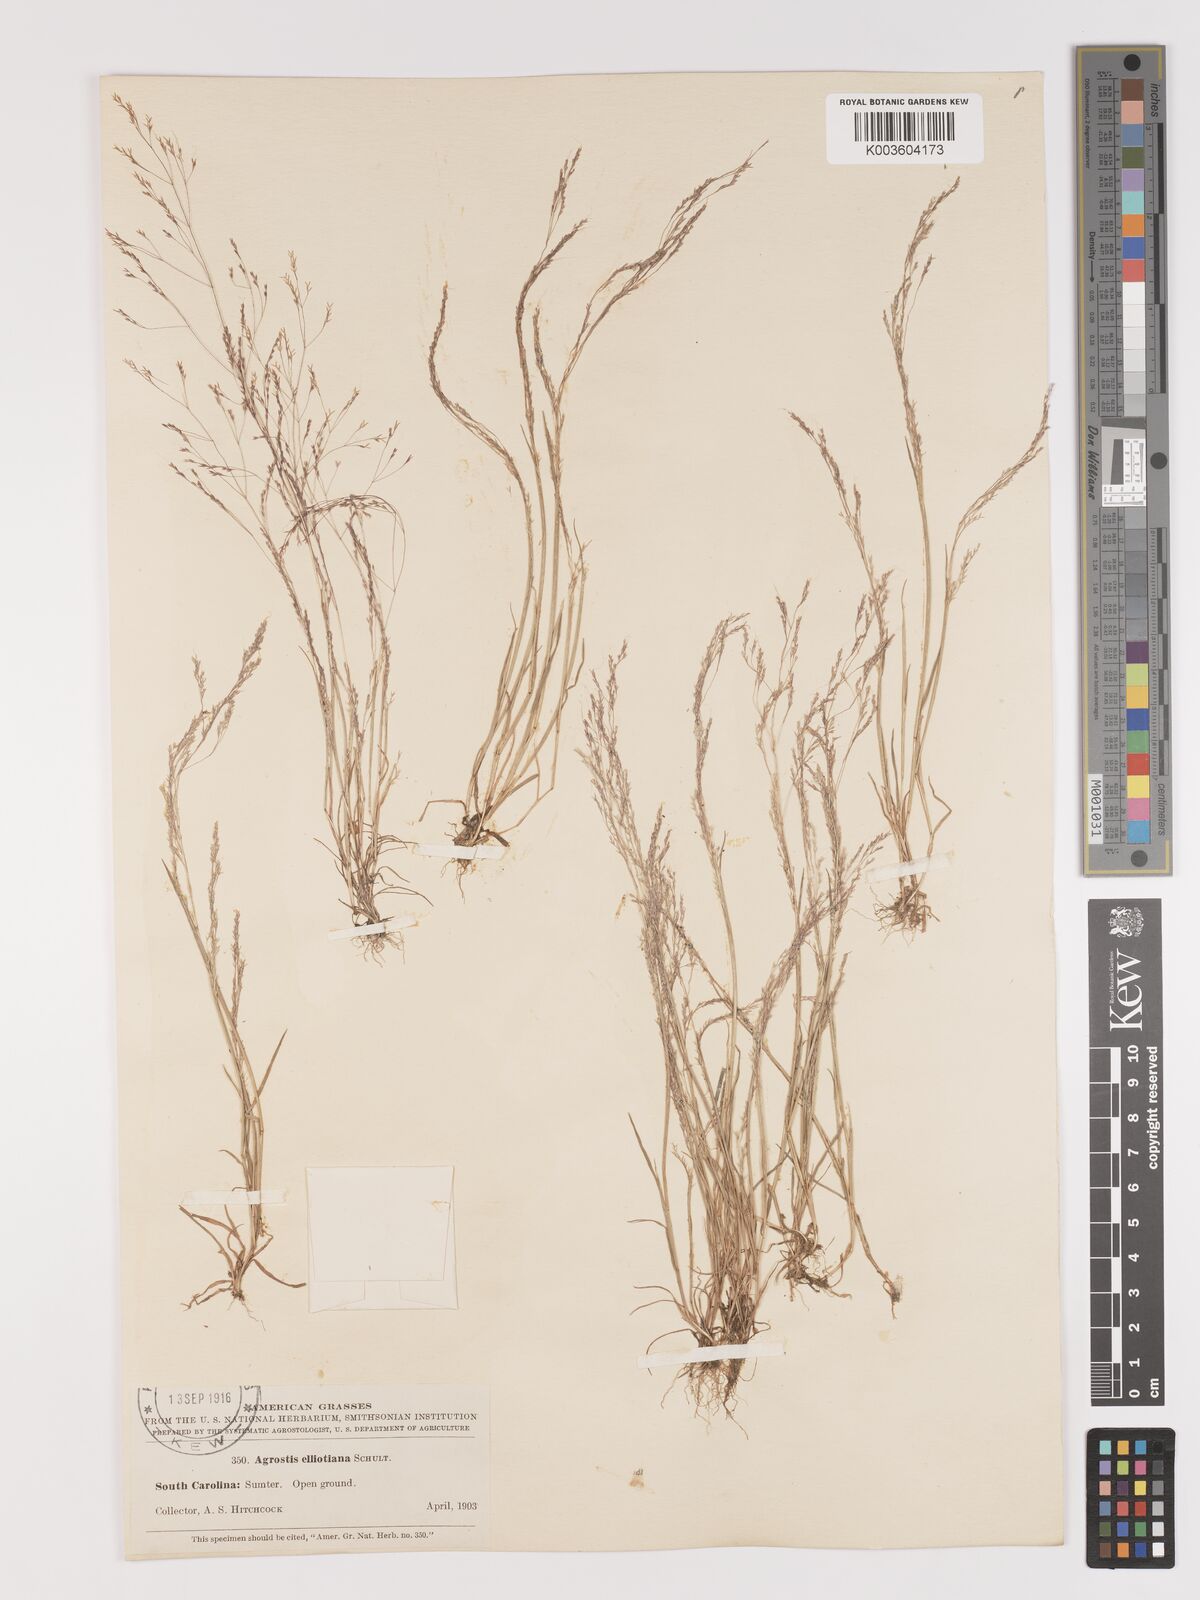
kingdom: Plantae
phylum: Tracheophyta
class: Liliopsida
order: Poales
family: Poaceae
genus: Agrostis
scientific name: Agrostis elliottiana
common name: Elliott's bent
